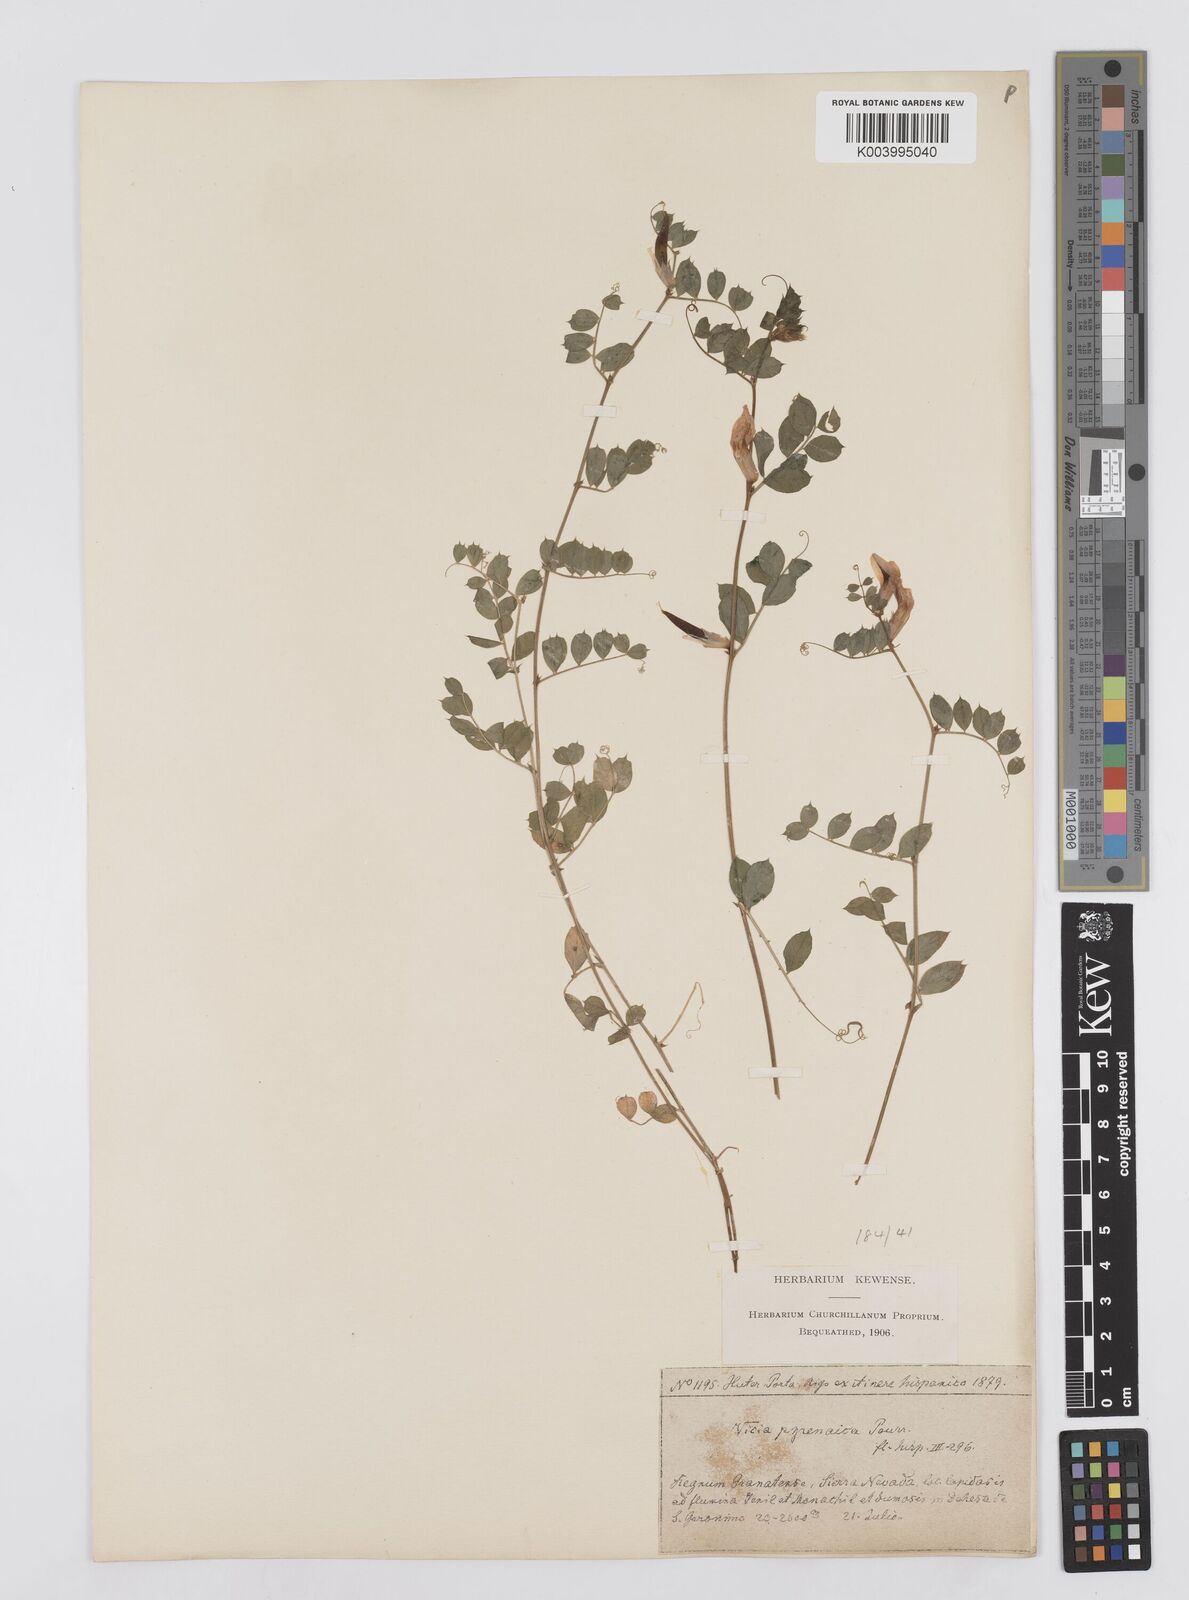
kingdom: Plantae
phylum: Tracheophyta
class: Magnoliopsida
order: Fabales
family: Fabaceae
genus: Vicia
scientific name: Vicia pyrenaica
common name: Pyrenean vetch
